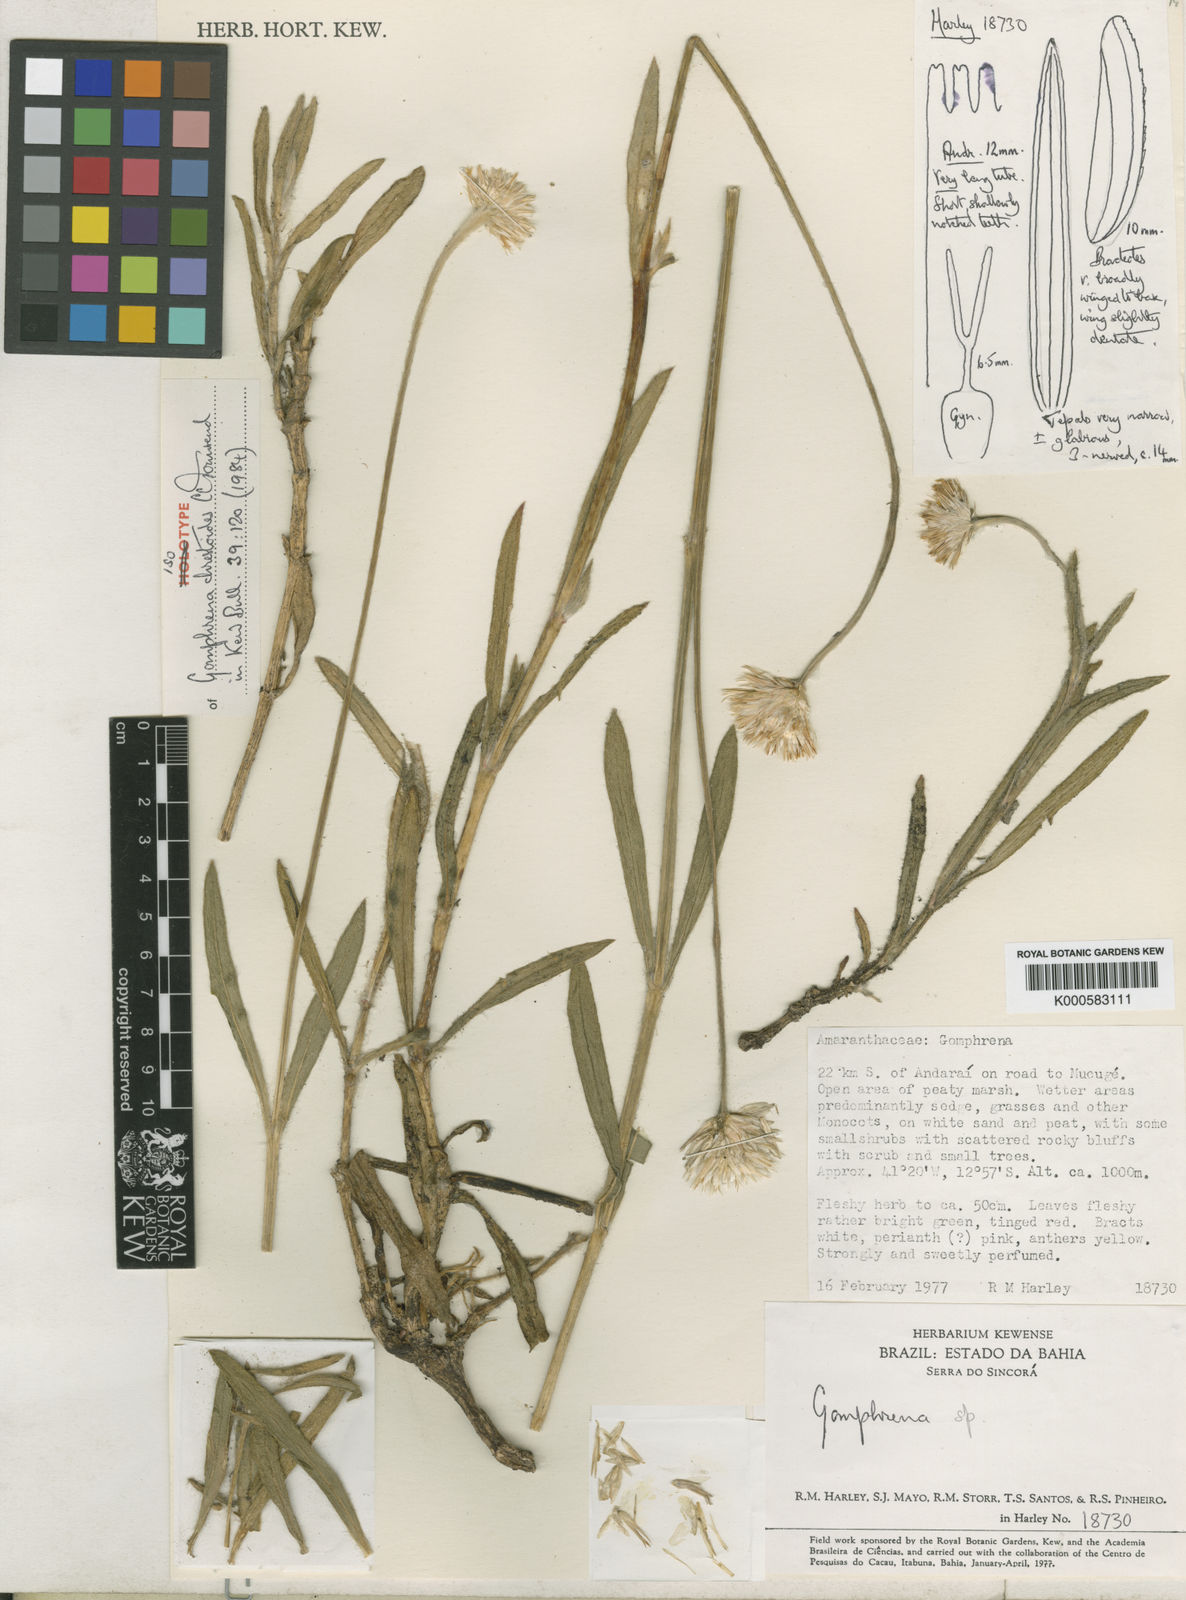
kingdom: Plantae
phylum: Tracheophyta
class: Magnoliopsida
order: Caryophyllales
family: Amaranthaceae
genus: Gomphrena
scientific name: Gomphrena chrestoides
